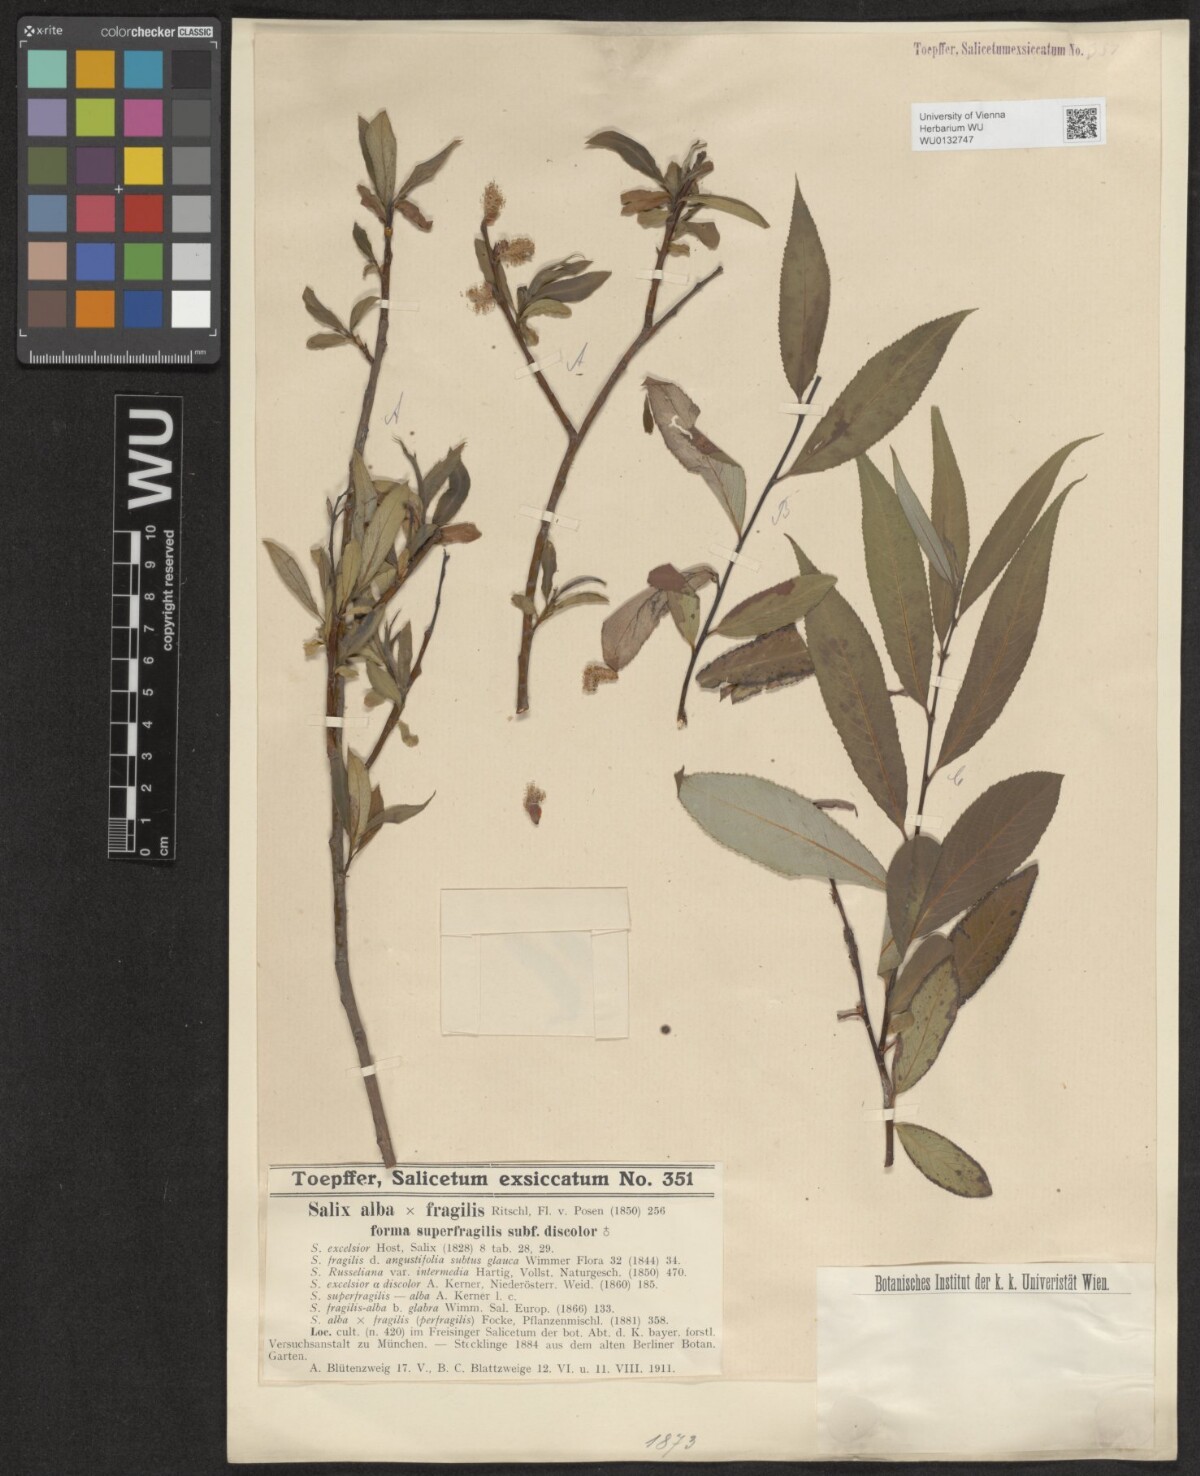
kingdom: Plantae
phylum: Tracheophyta
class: Magnoliopsida
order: Malpighiales
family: Salicaceae
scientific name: Salicaceae
